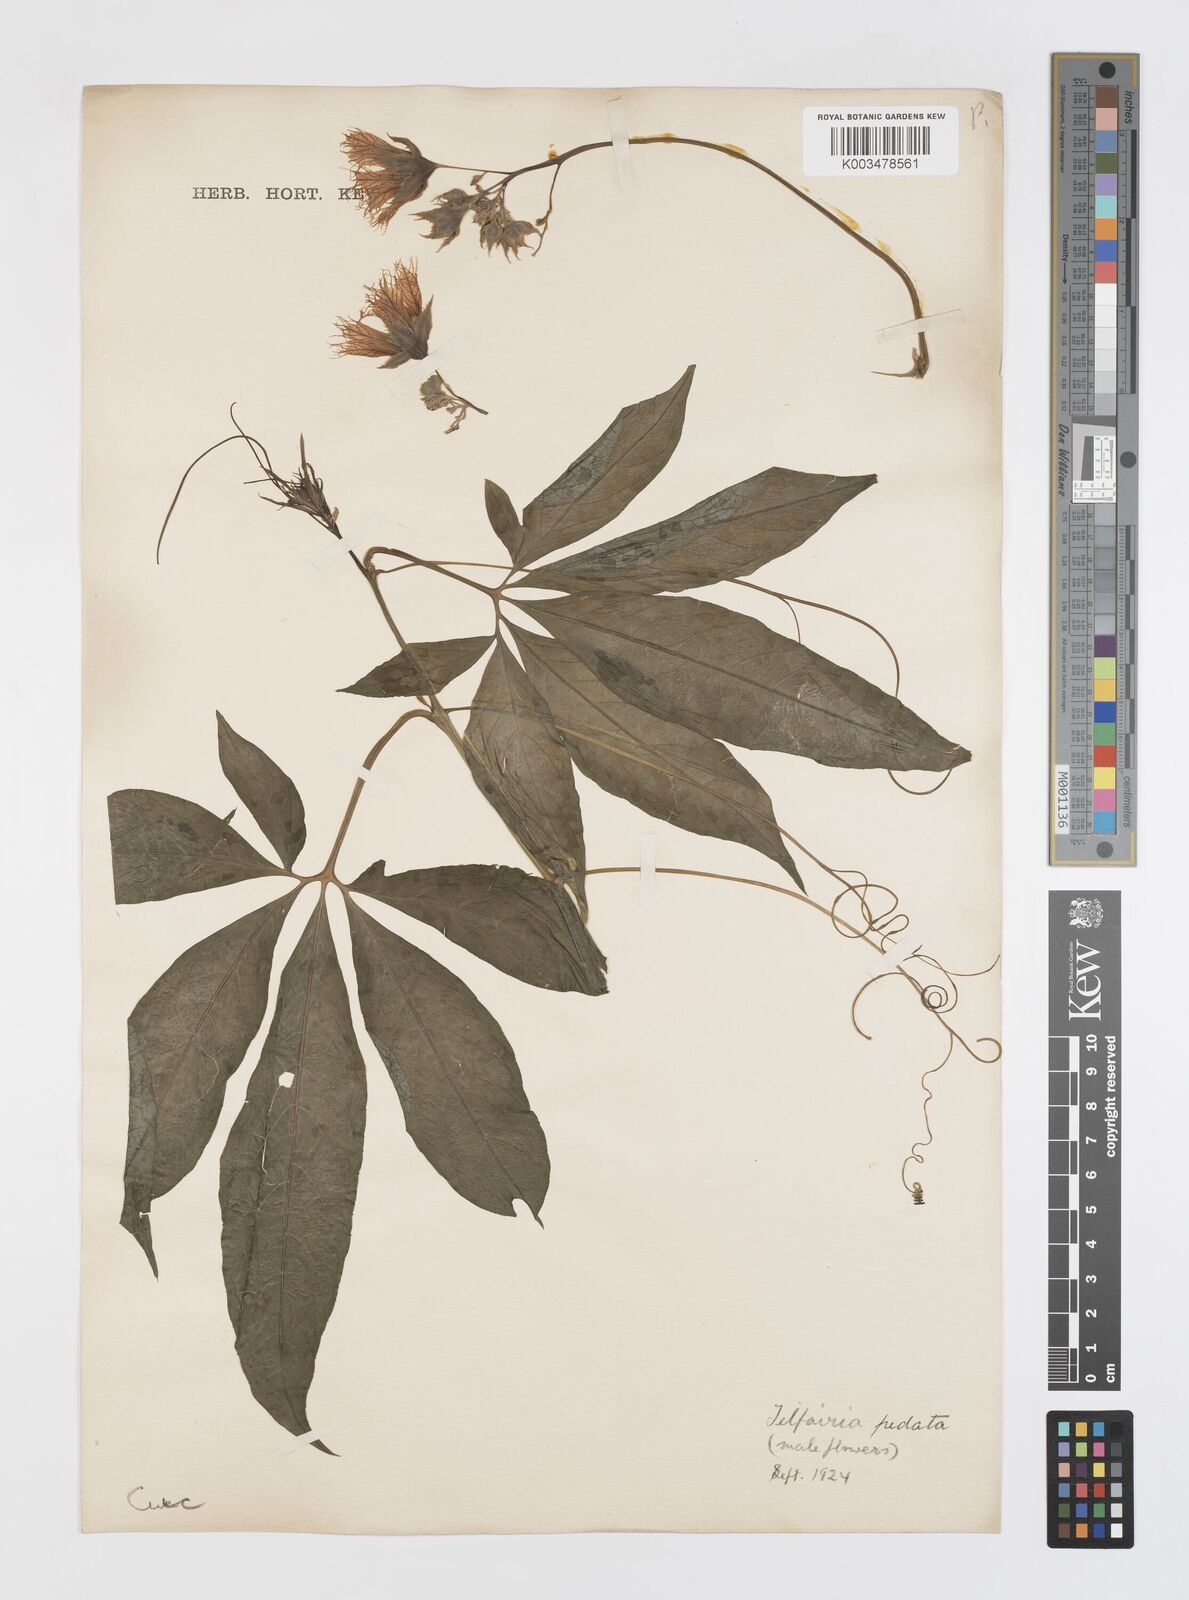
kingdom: Plantae
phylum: Tracheophyta
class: Magnoliopsida
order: Cucurbitales
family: Cucurbitaceae
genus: Telfairia
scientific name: Telfairia pedata
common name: Zanzibar oilvine
